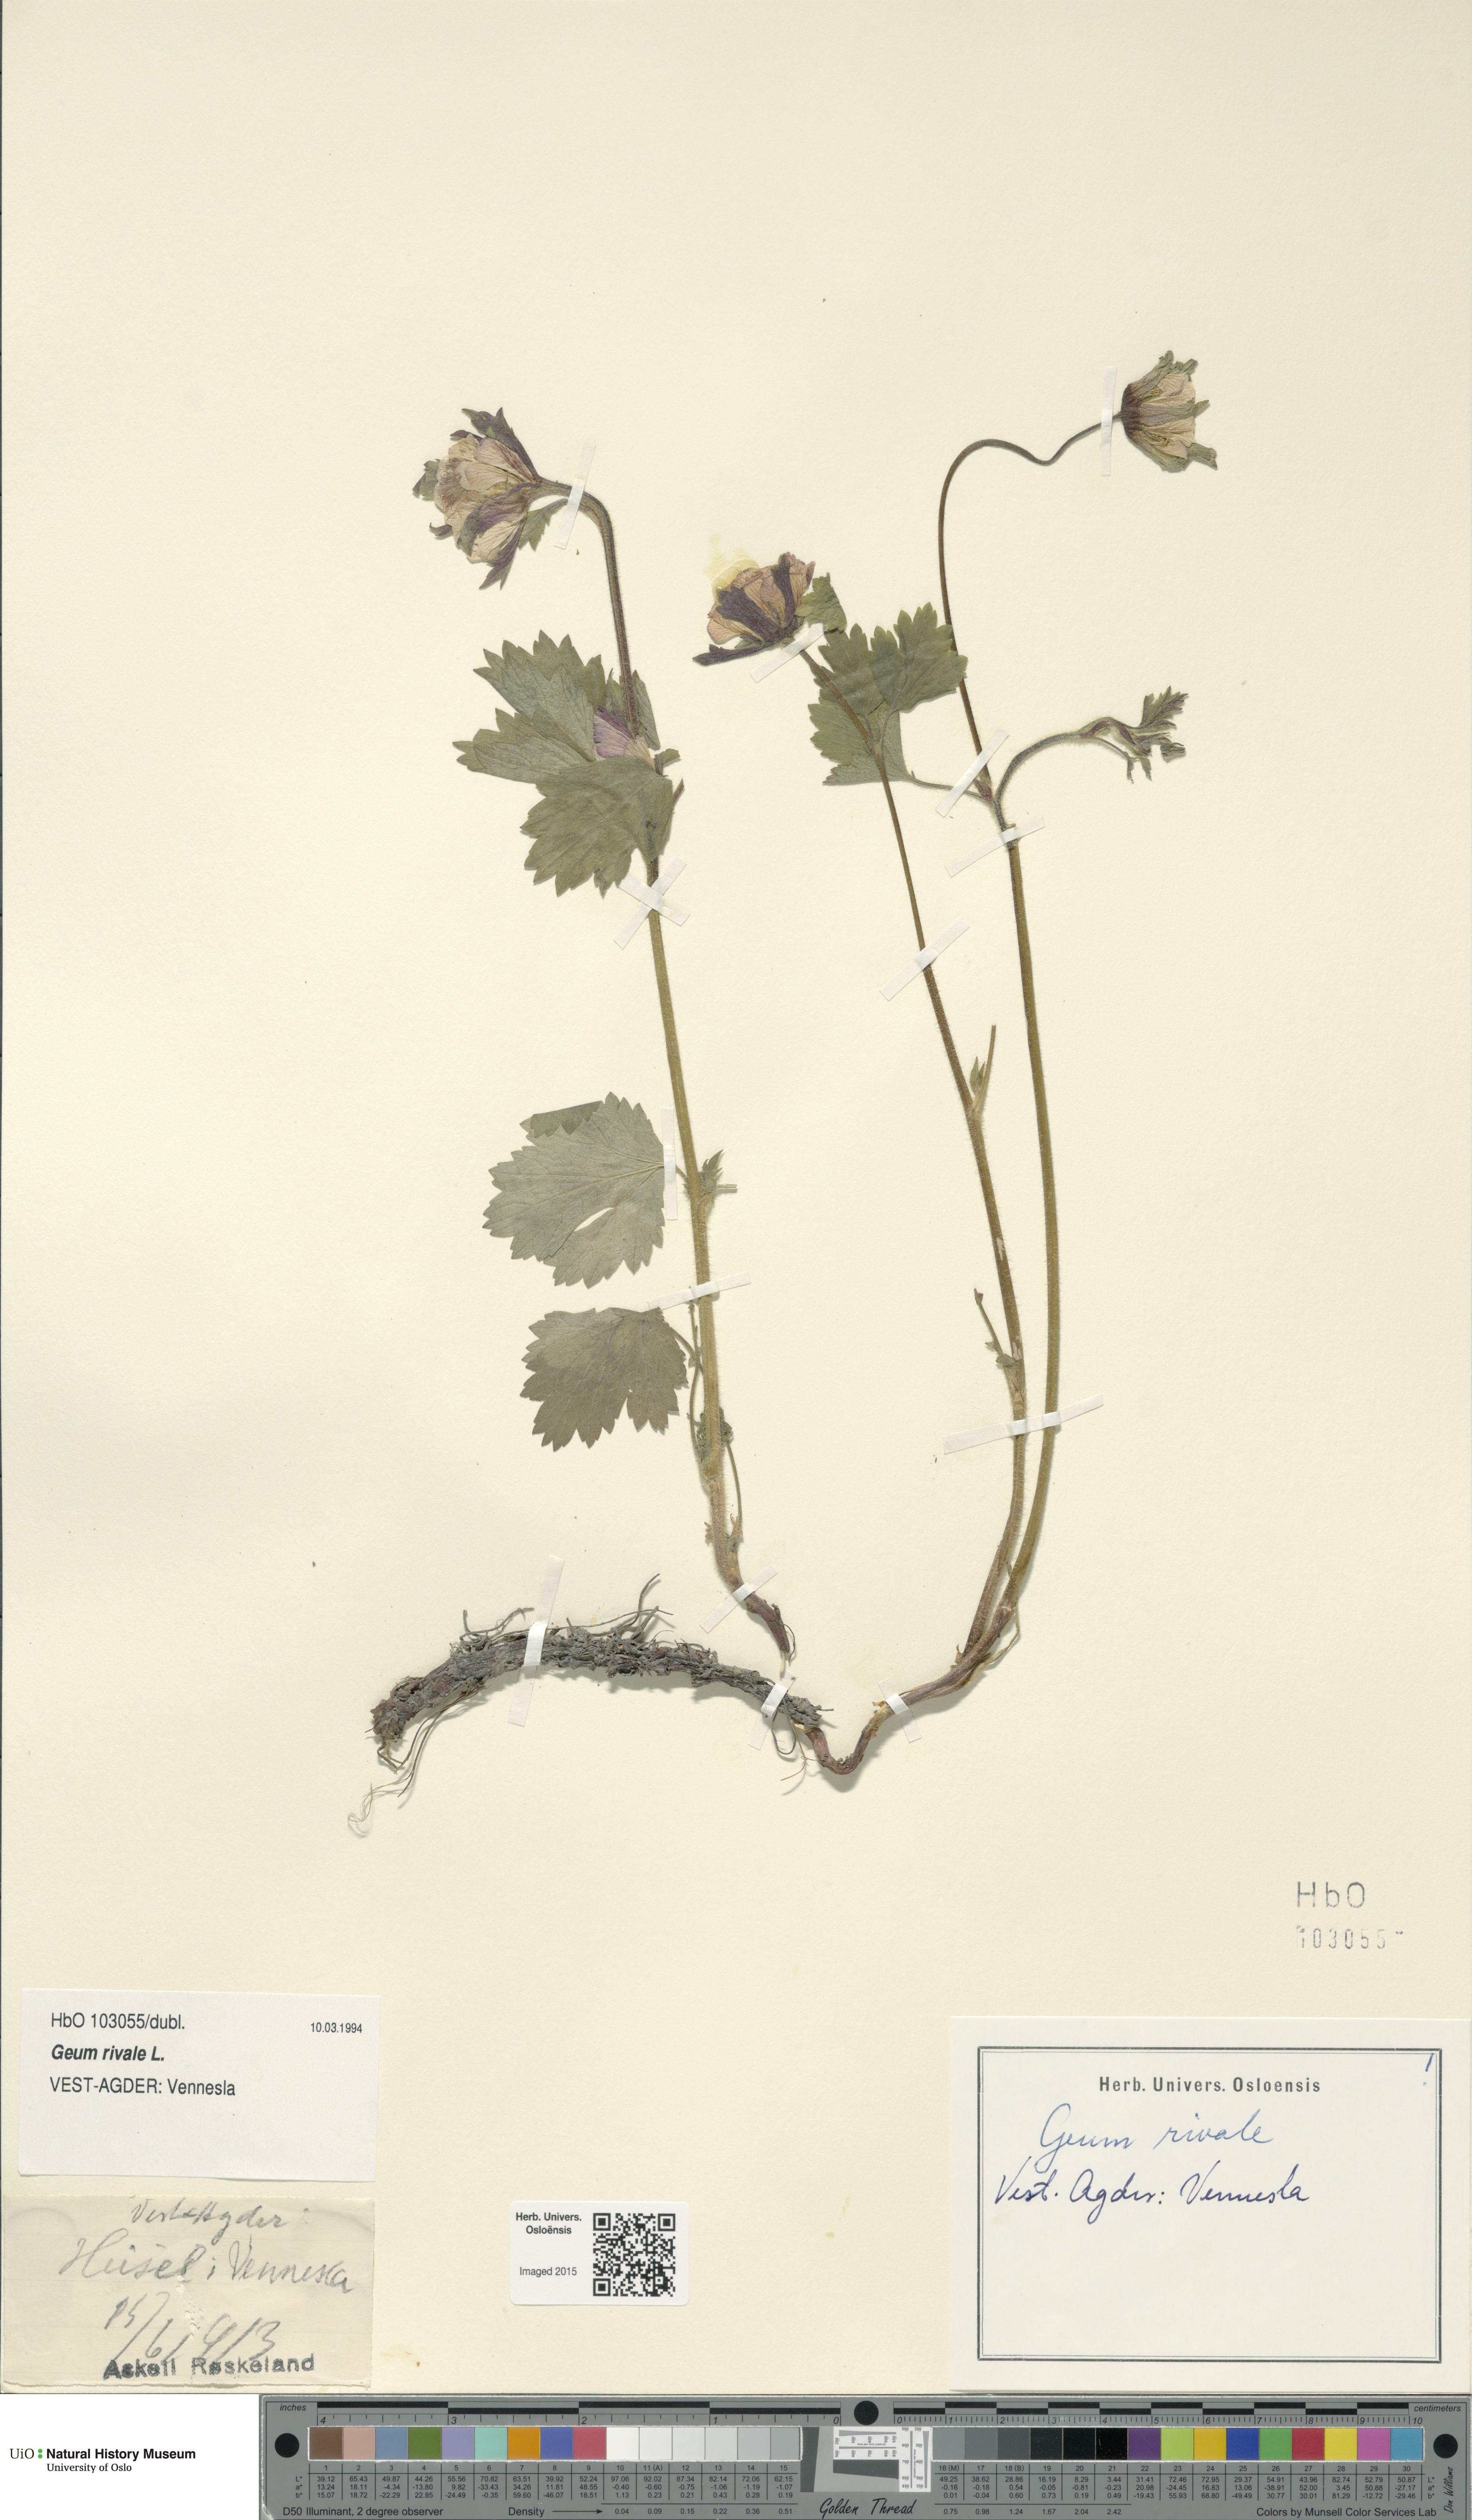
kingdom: Plantae
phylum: Tracheophyta
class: Magnoliopsida
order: Rosales
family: Rosaceae
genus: Geum
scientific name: Geum rivale
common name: Water avens
